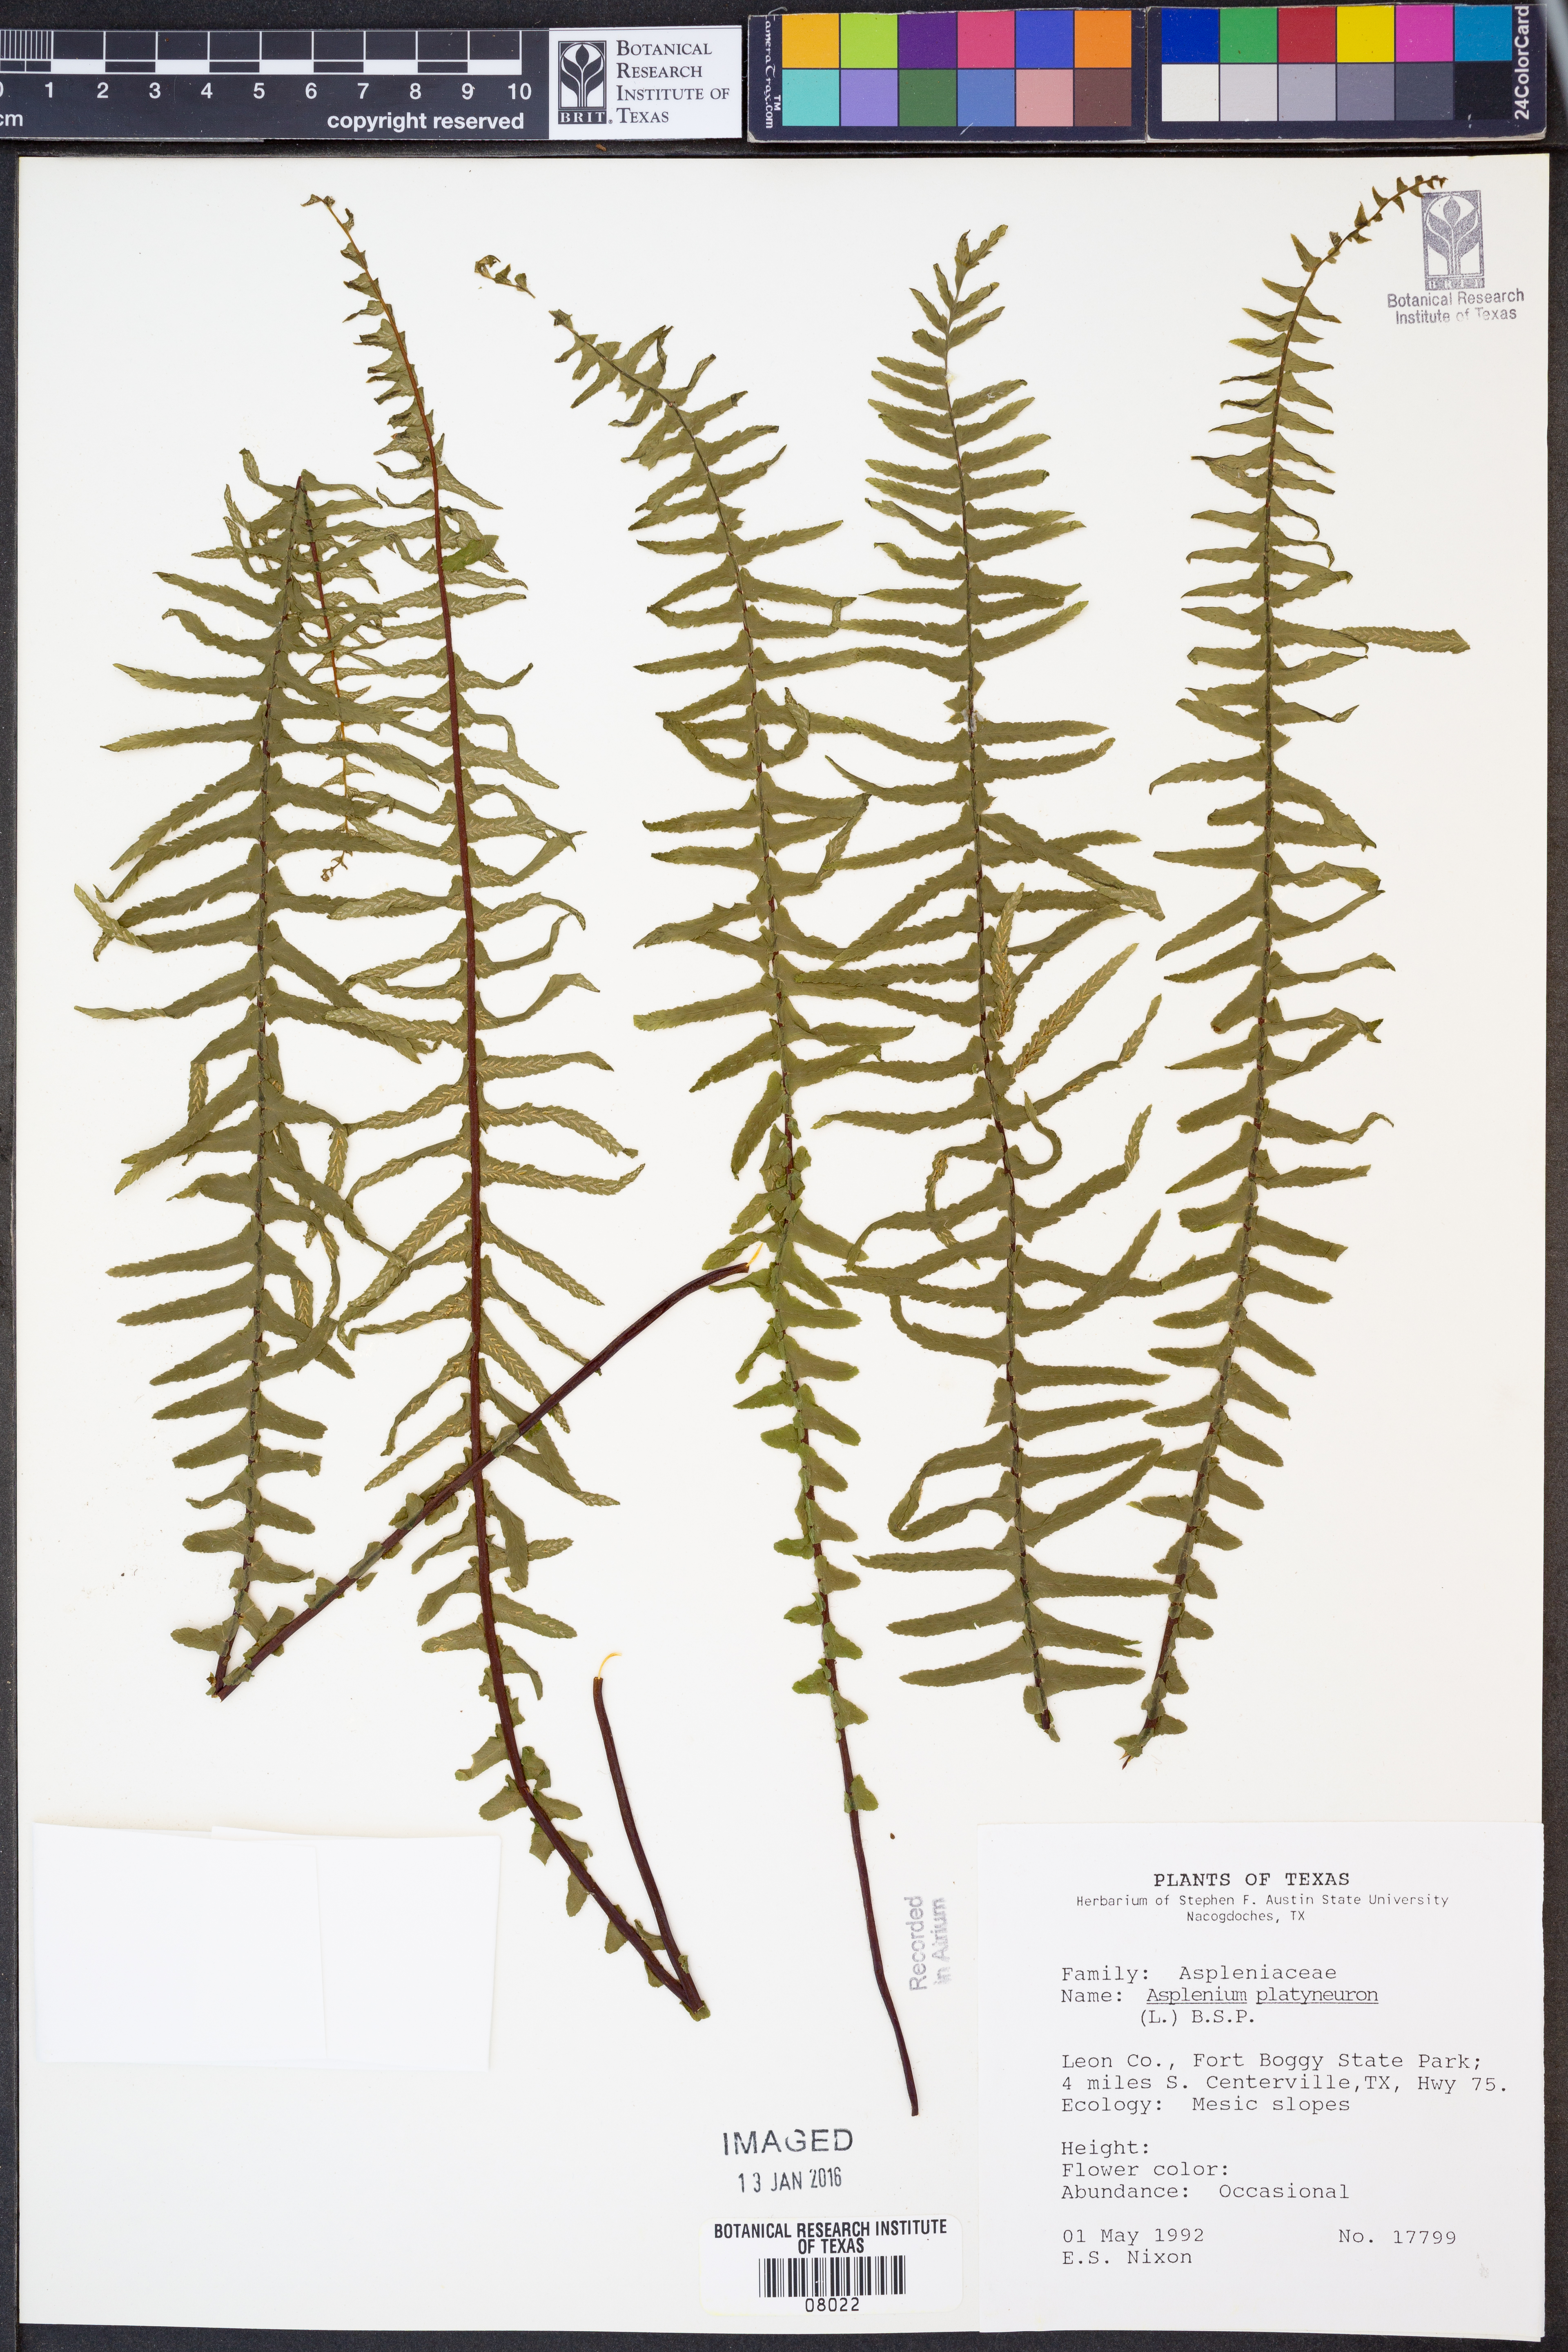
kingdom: Plantae
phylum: Tracheophyta
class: Polypodiopsida
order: Polypodiales
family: Aspleniaceae
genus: Asplenium
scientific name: Asplenium platyneuron
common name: Ebony spleenwort
